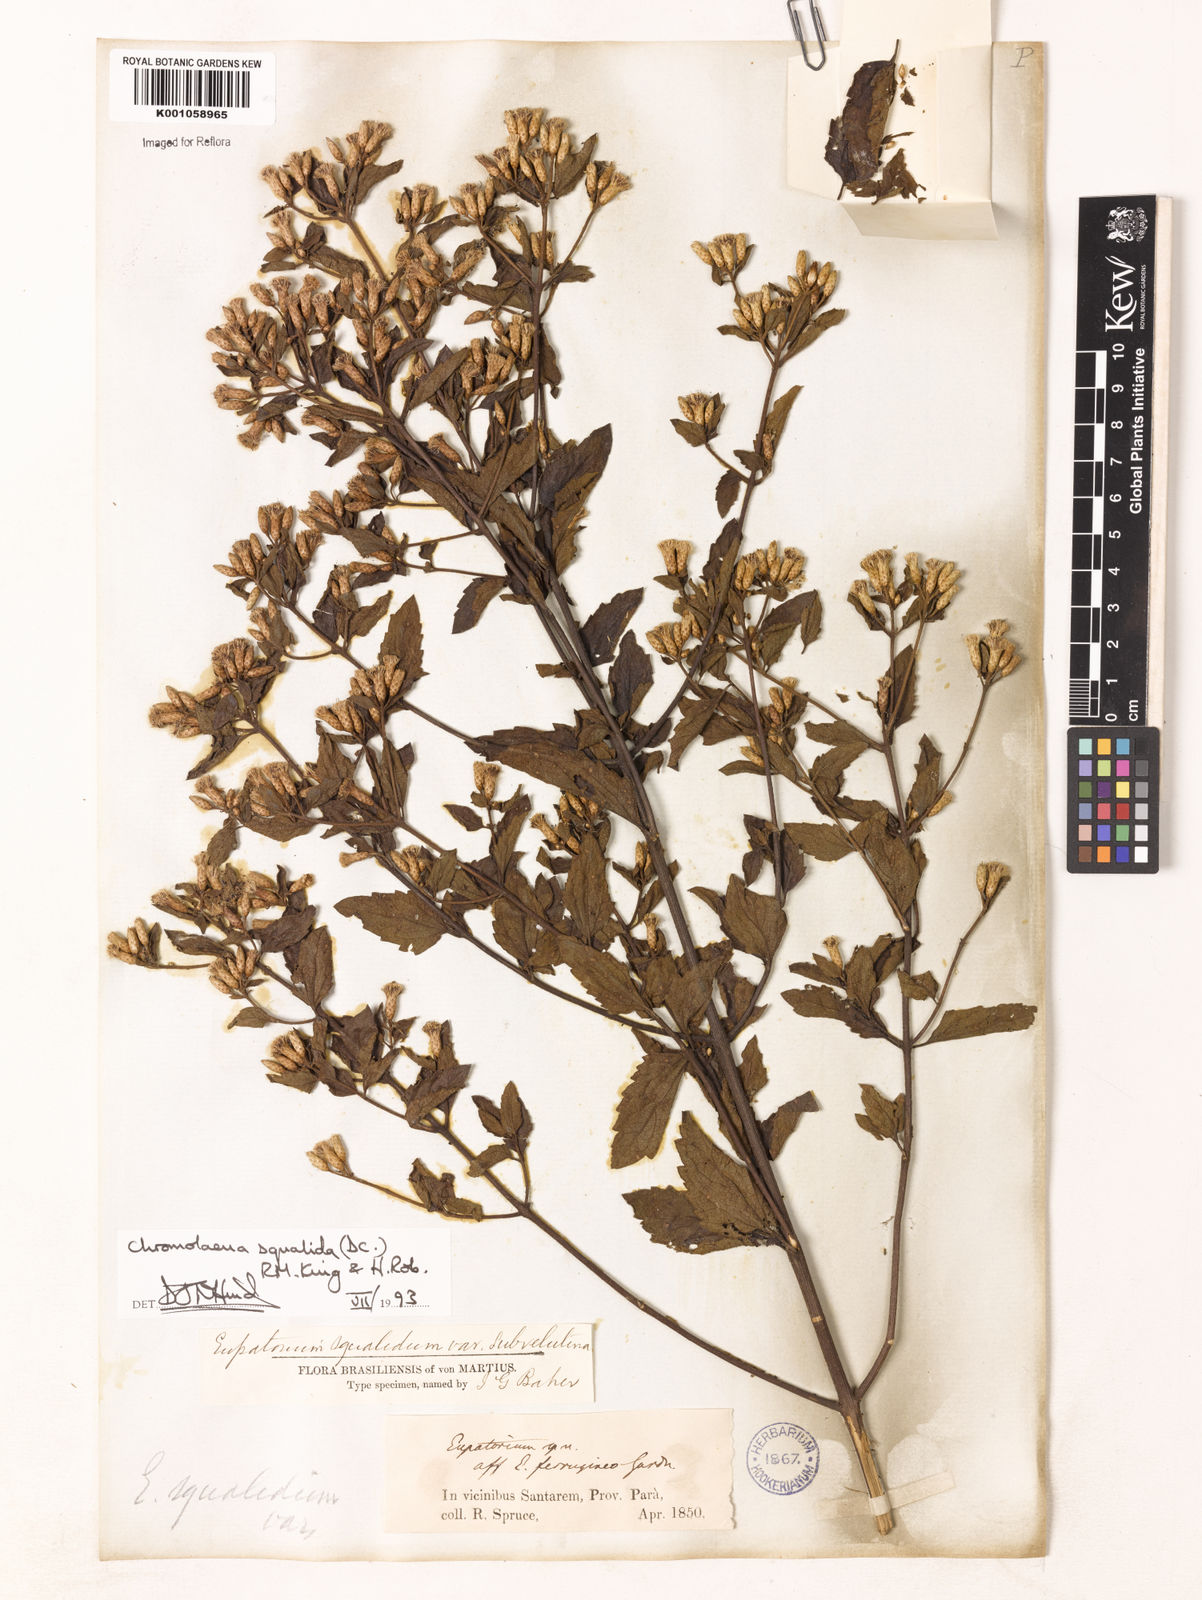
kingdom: Plantae
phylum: Tracheophyta
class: Magnoliopsida
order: Asterales
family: Asteraceae
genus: Chromolaena
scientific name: Chromolaena squalida
